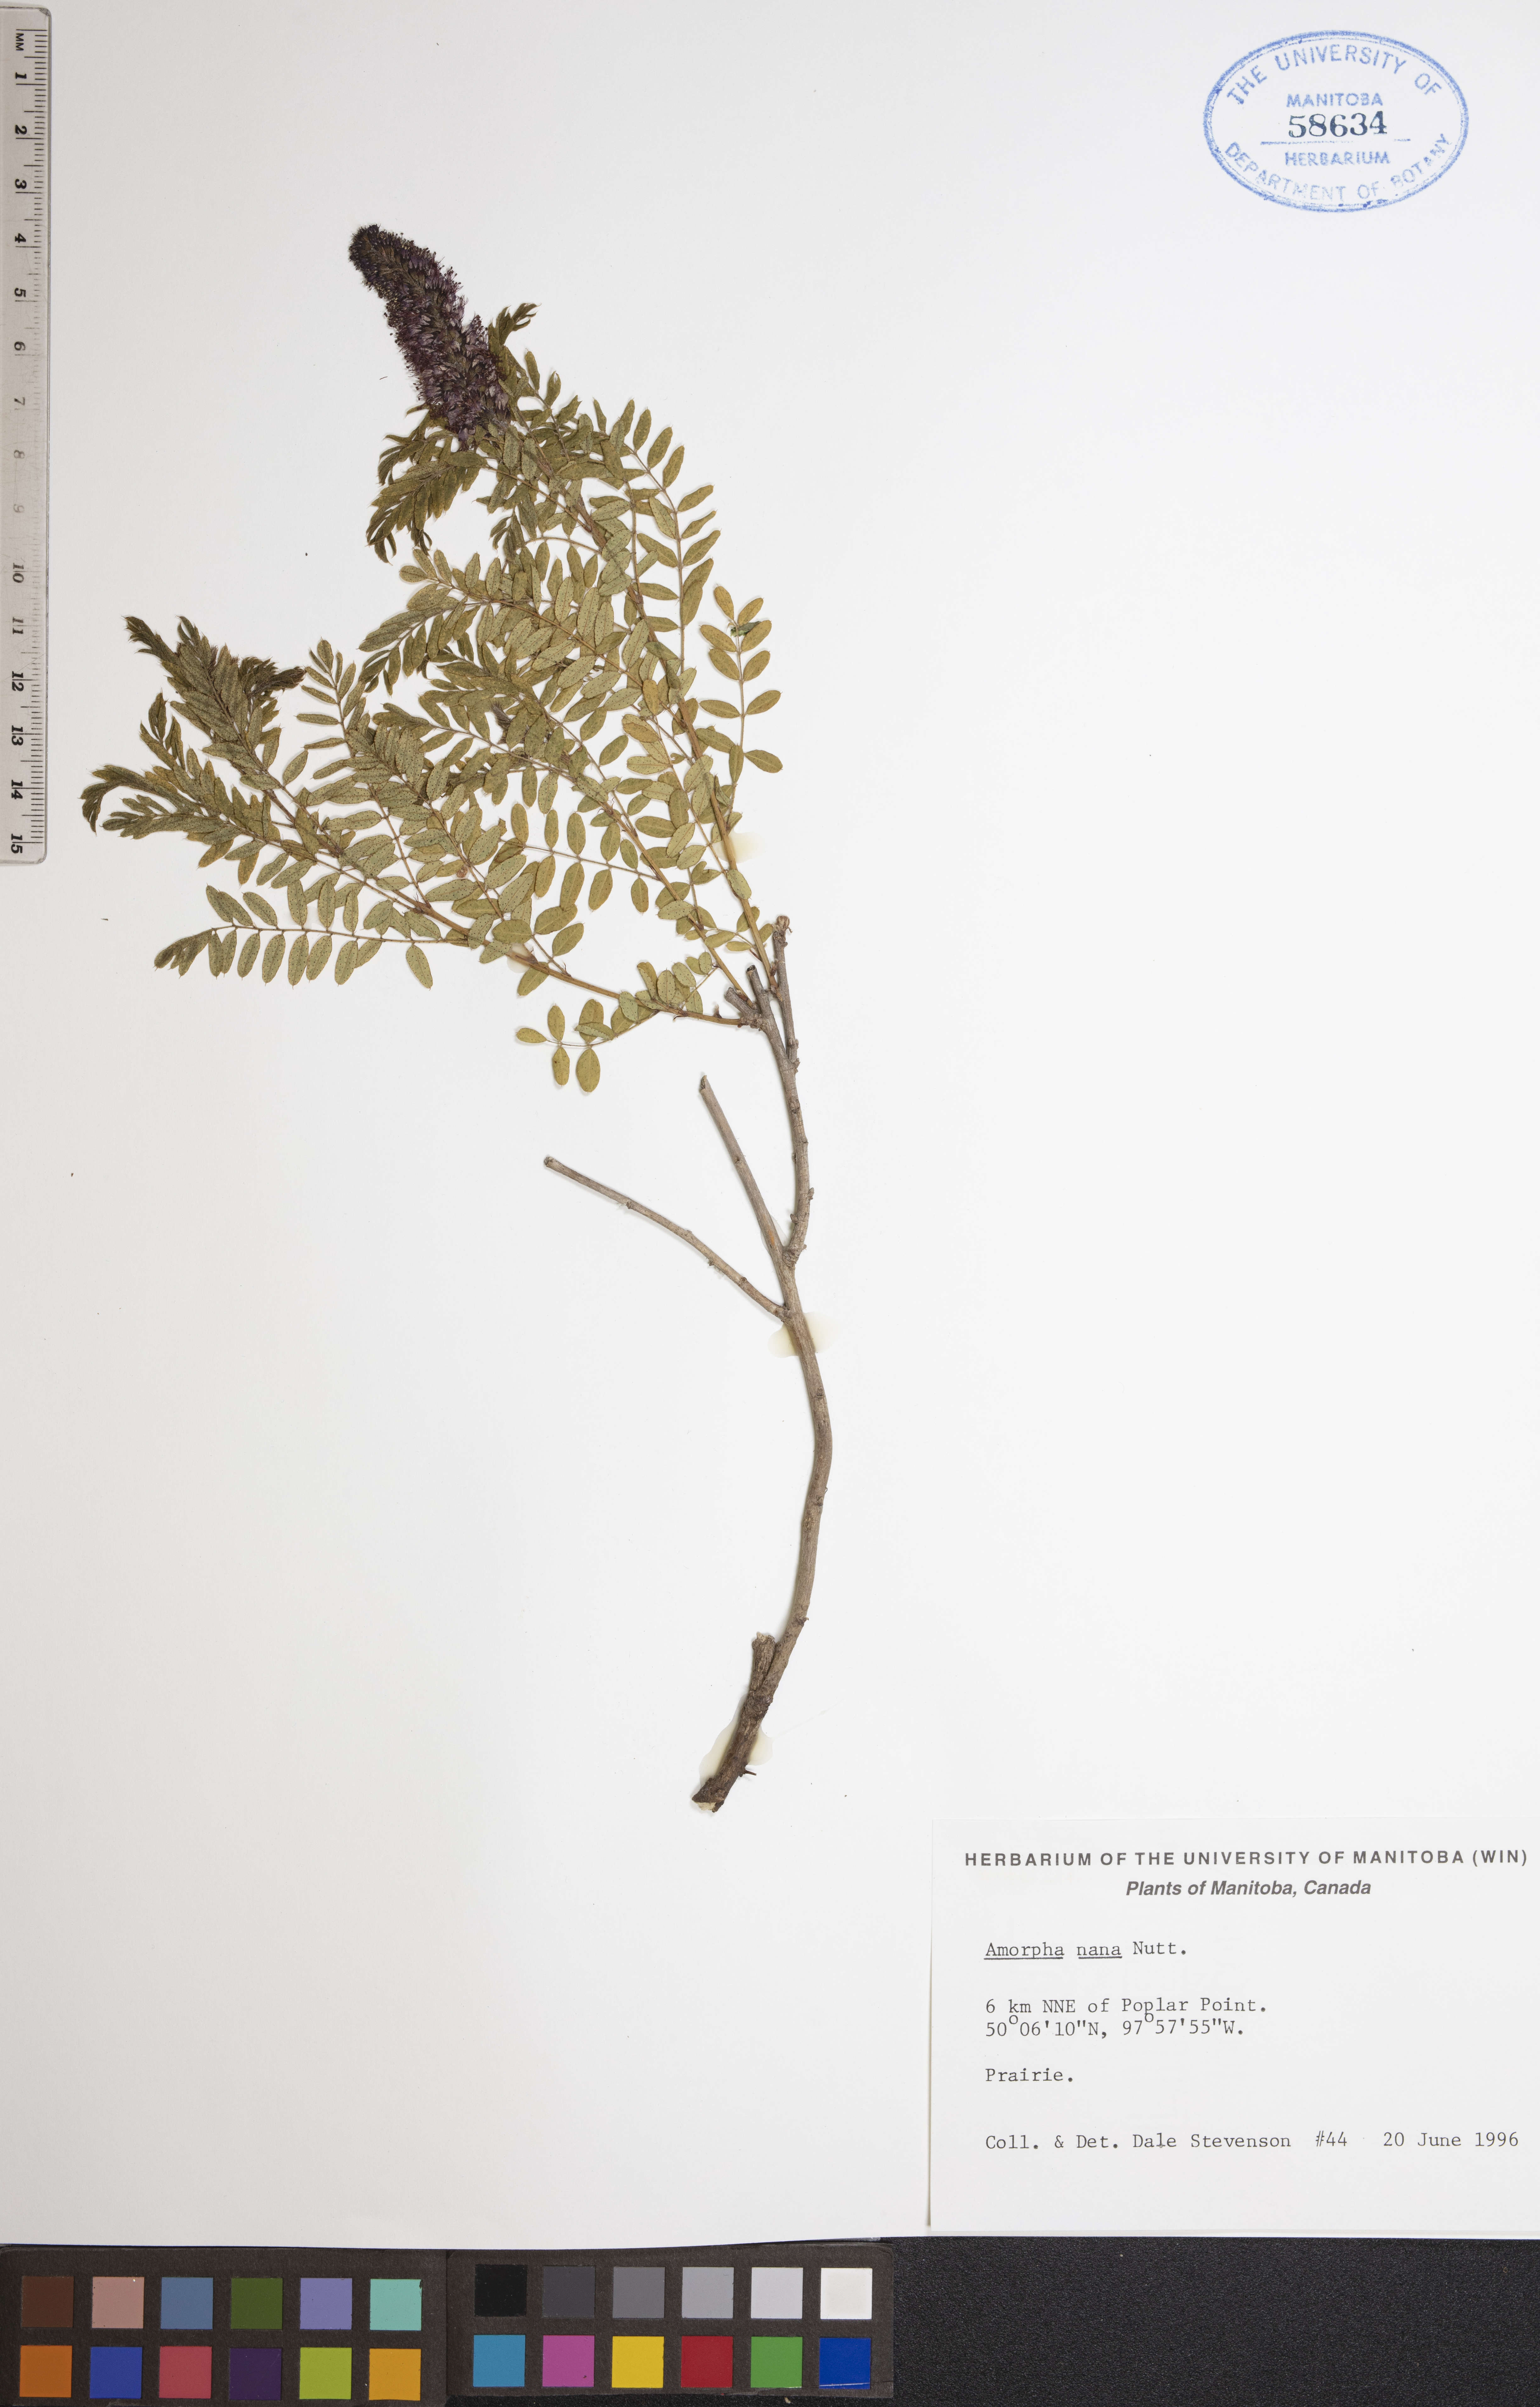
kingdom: Plantae
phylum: Tracheophyta
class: Magnoliopsida
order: Fabales
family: Fabaceae
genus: Amorpha
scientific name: Amorpha nana
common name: Fragrant false indigo
